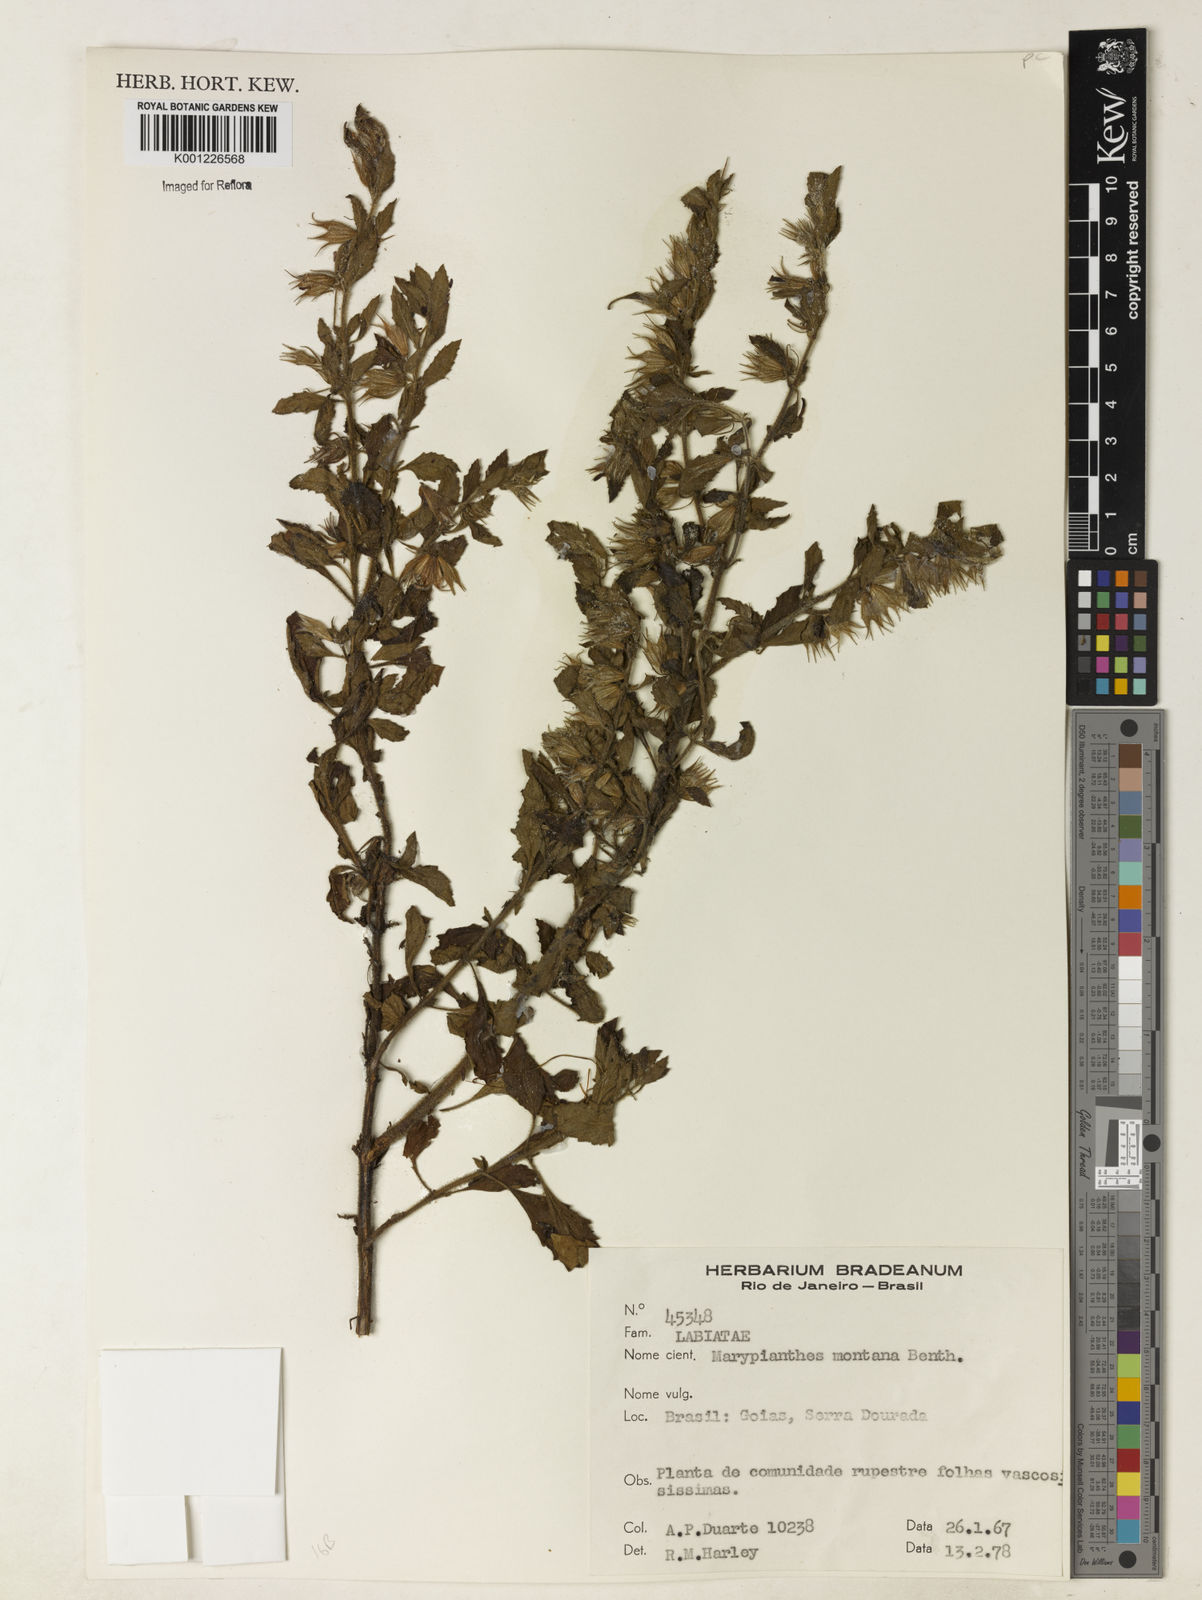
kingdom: Plantae
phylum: Tracheophyta
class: Magnoliopsida
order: Lamiales
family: Lamiaceae
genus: Marsypianthes
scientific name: Marsypianthes burchellii
